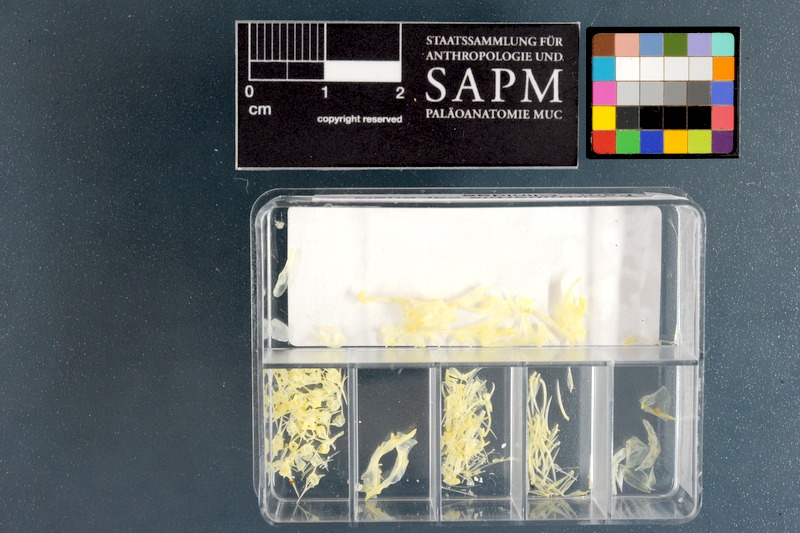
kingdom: Animalia
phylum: Chordata
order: Perciformes
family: Clinidae
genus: Cirrhibarbis
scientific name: Cirrhibarbis capensis
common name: Barbelled klipfish
